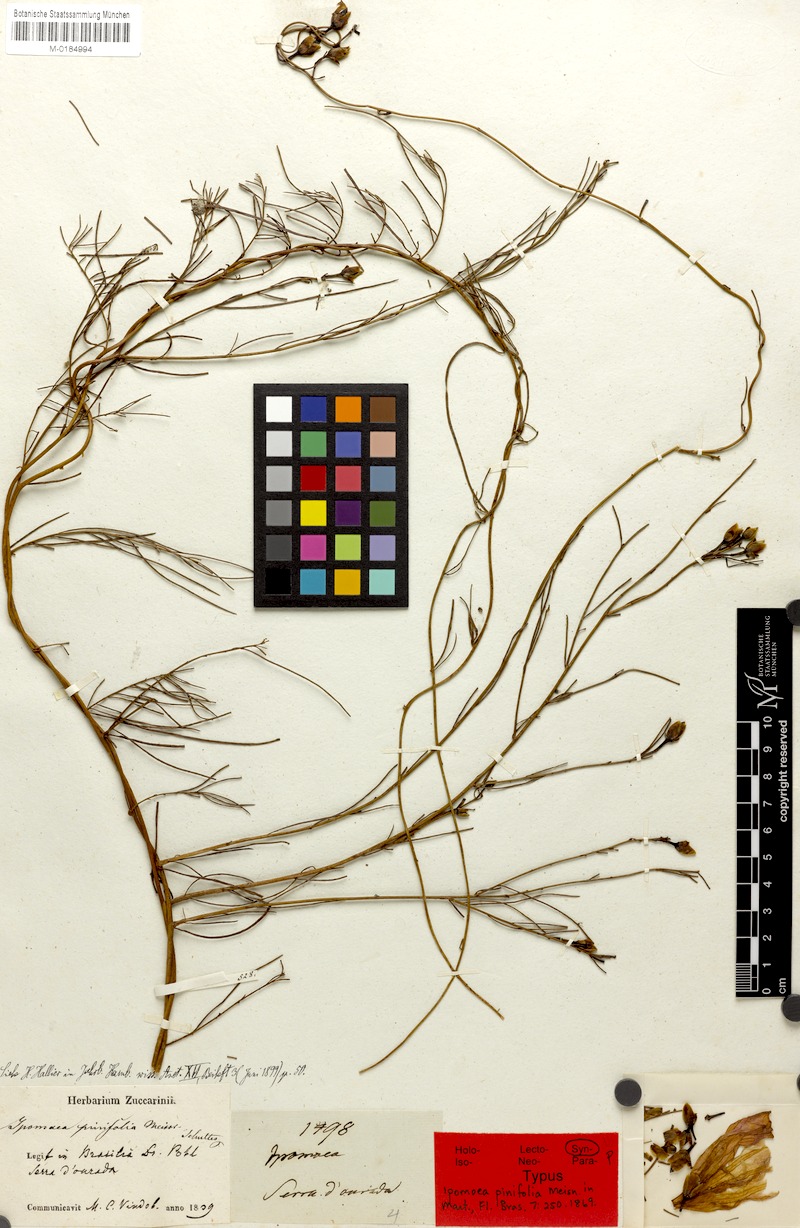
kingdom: Plantae
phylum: Tracheophyta
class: Magnoliopsida
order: Solanales
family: Convolvulaceae
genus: Ipomoea
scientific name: Ipomoea pinifolia
